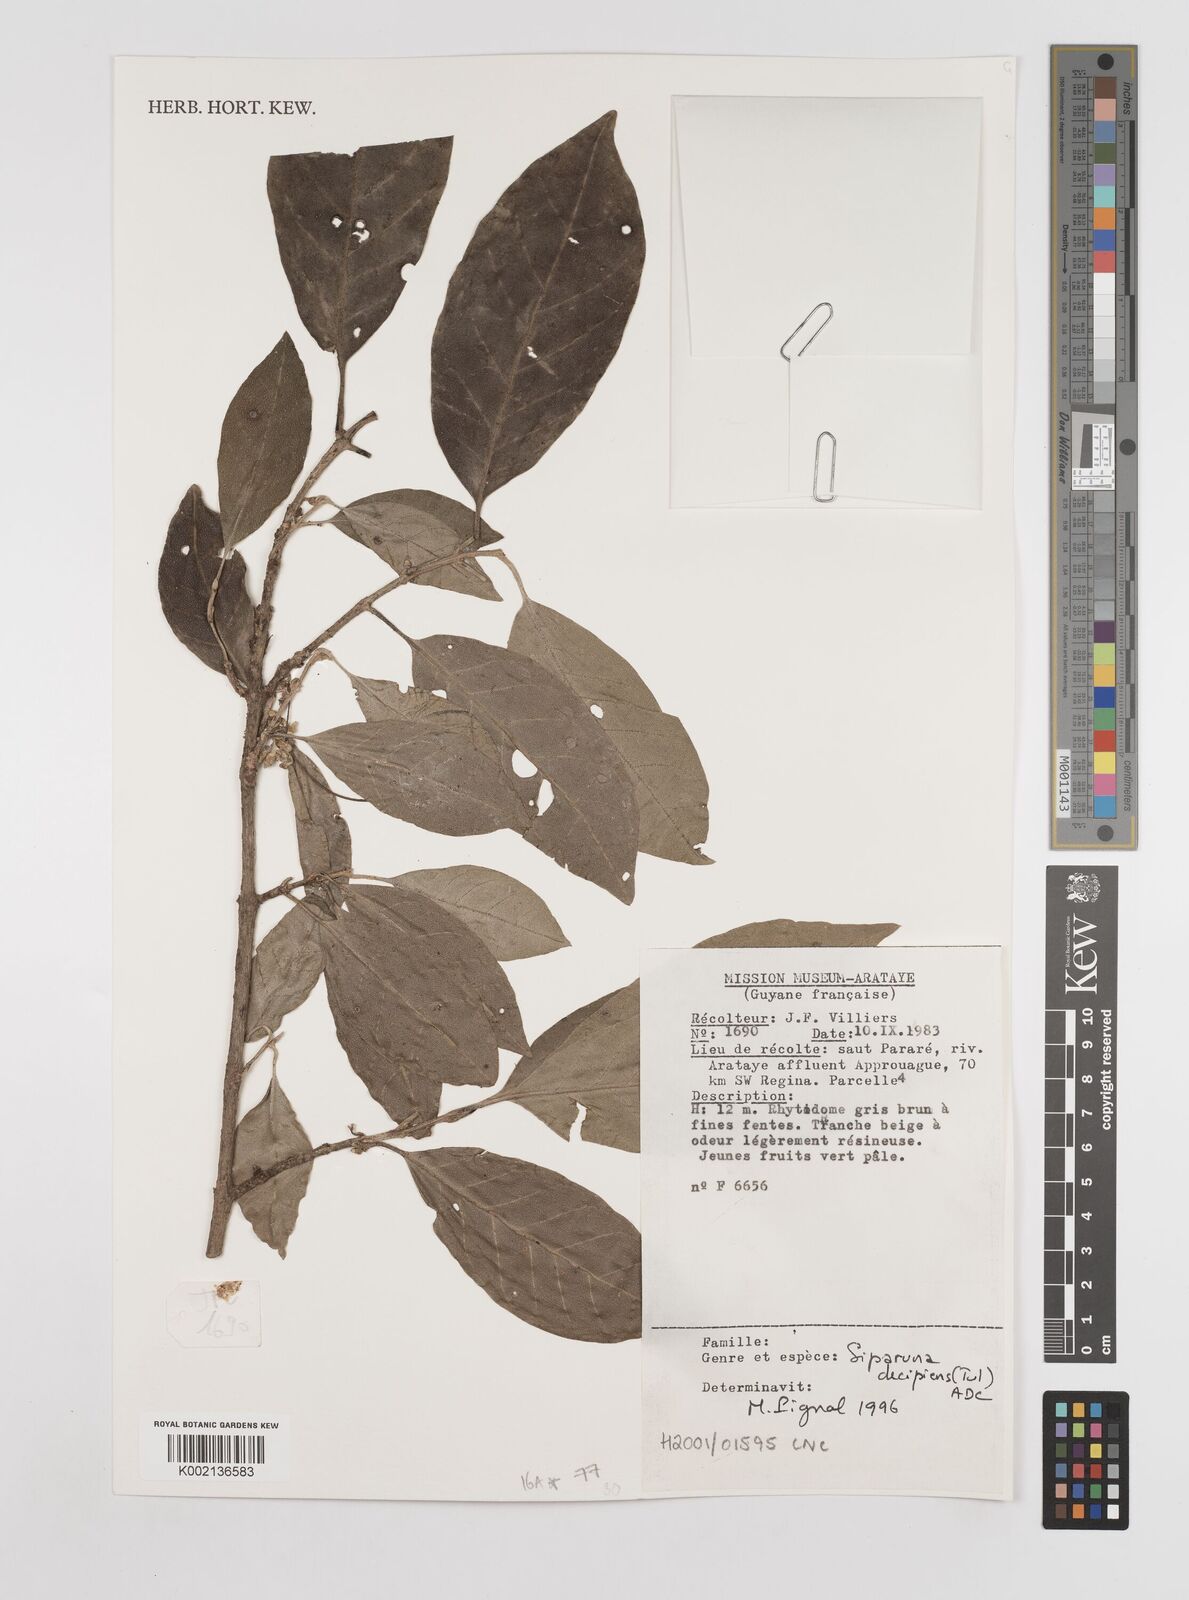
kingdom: Plantae
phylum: Tracheophyta
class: Magnoliopsida
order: Laurales
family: Siparunaceae
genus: Siparuna
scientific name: Siparuna decipiens
